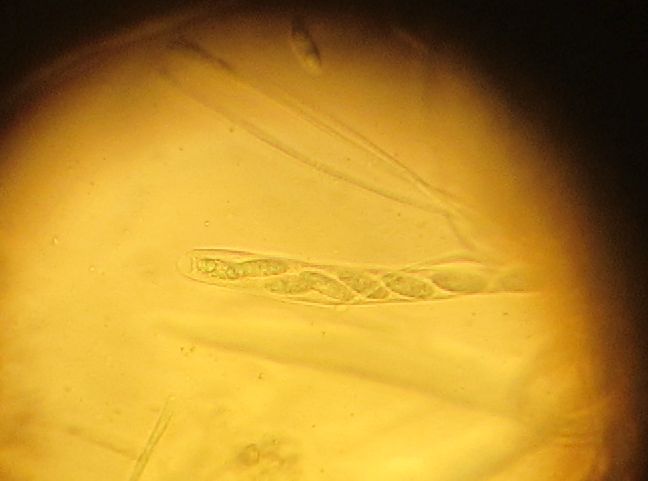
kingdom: Fungi
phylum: Ascomycota
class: Leotiomycetes
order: Helotiales
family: Rutstroemiaceae
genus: Rutstroemia
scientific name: Rutstroemia elatina
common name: ædelgran-brunskive
